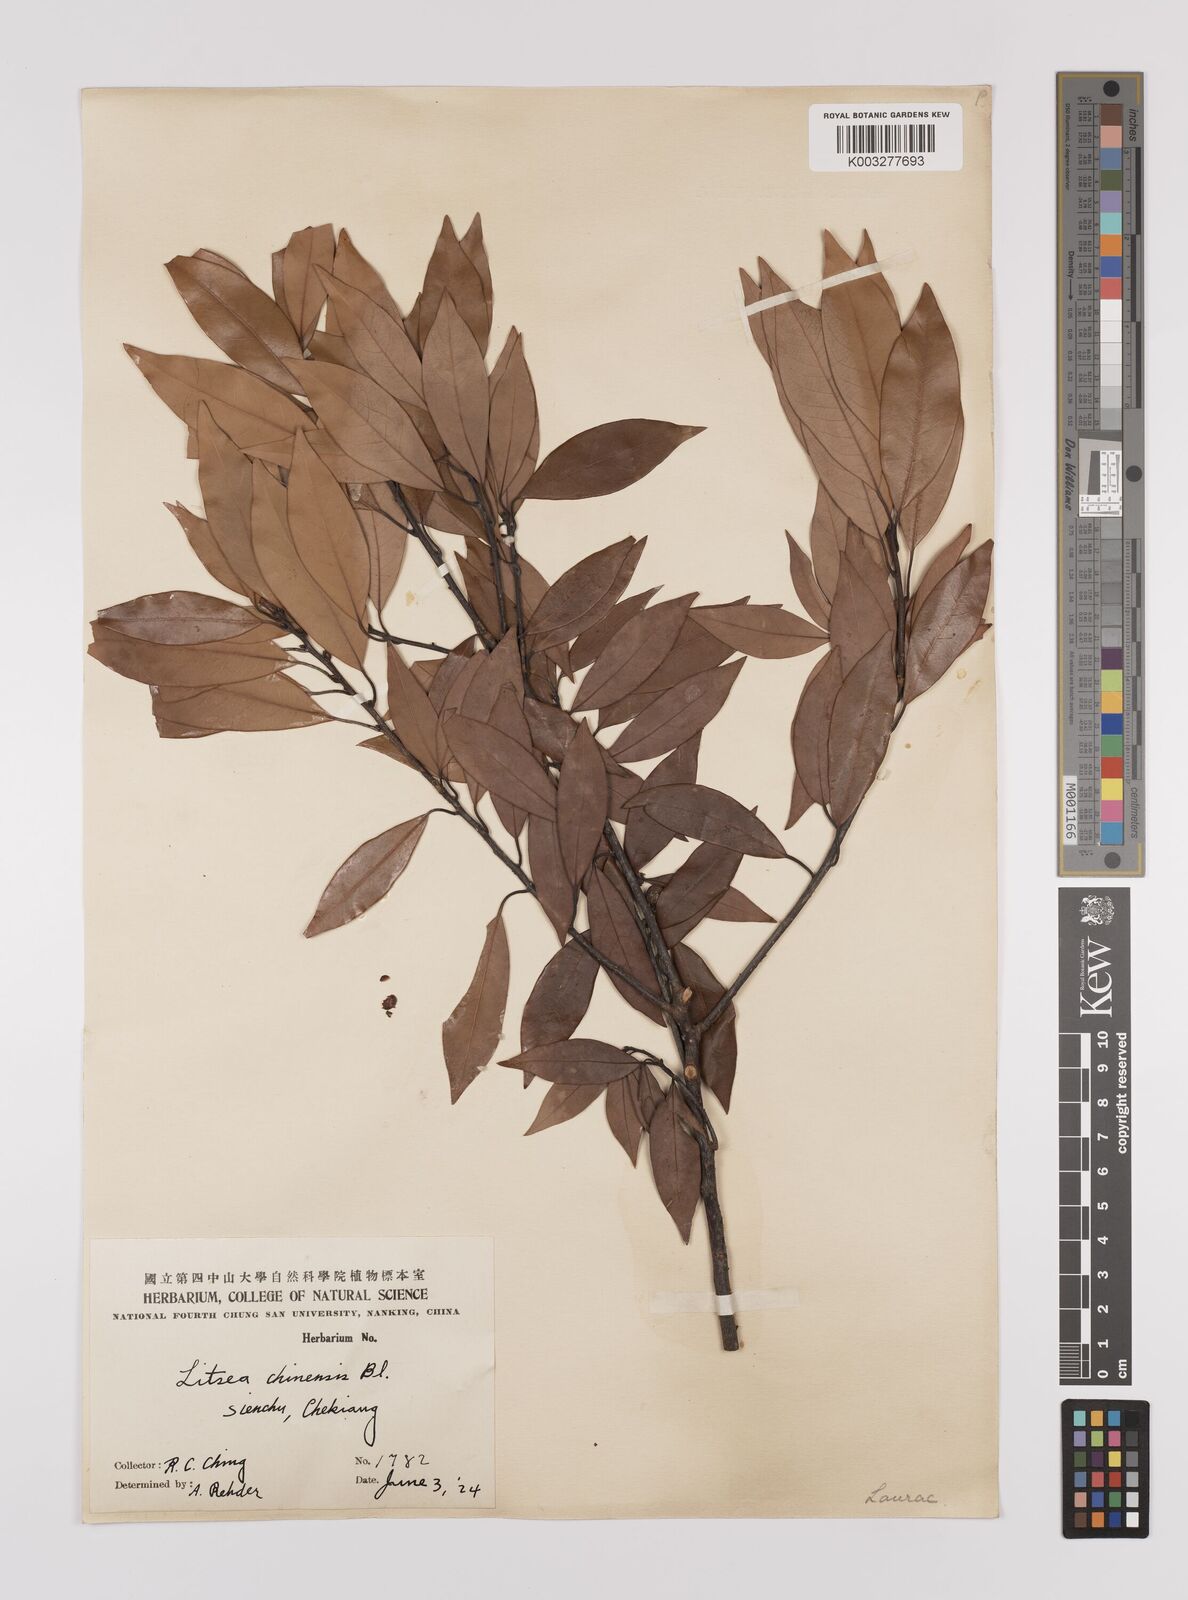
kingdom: Plantae
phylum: Tracheophyta
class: Magnoliopsida
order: Laurales
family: Lauraceae
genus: Litsea
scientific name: Litsea rotundifolia
